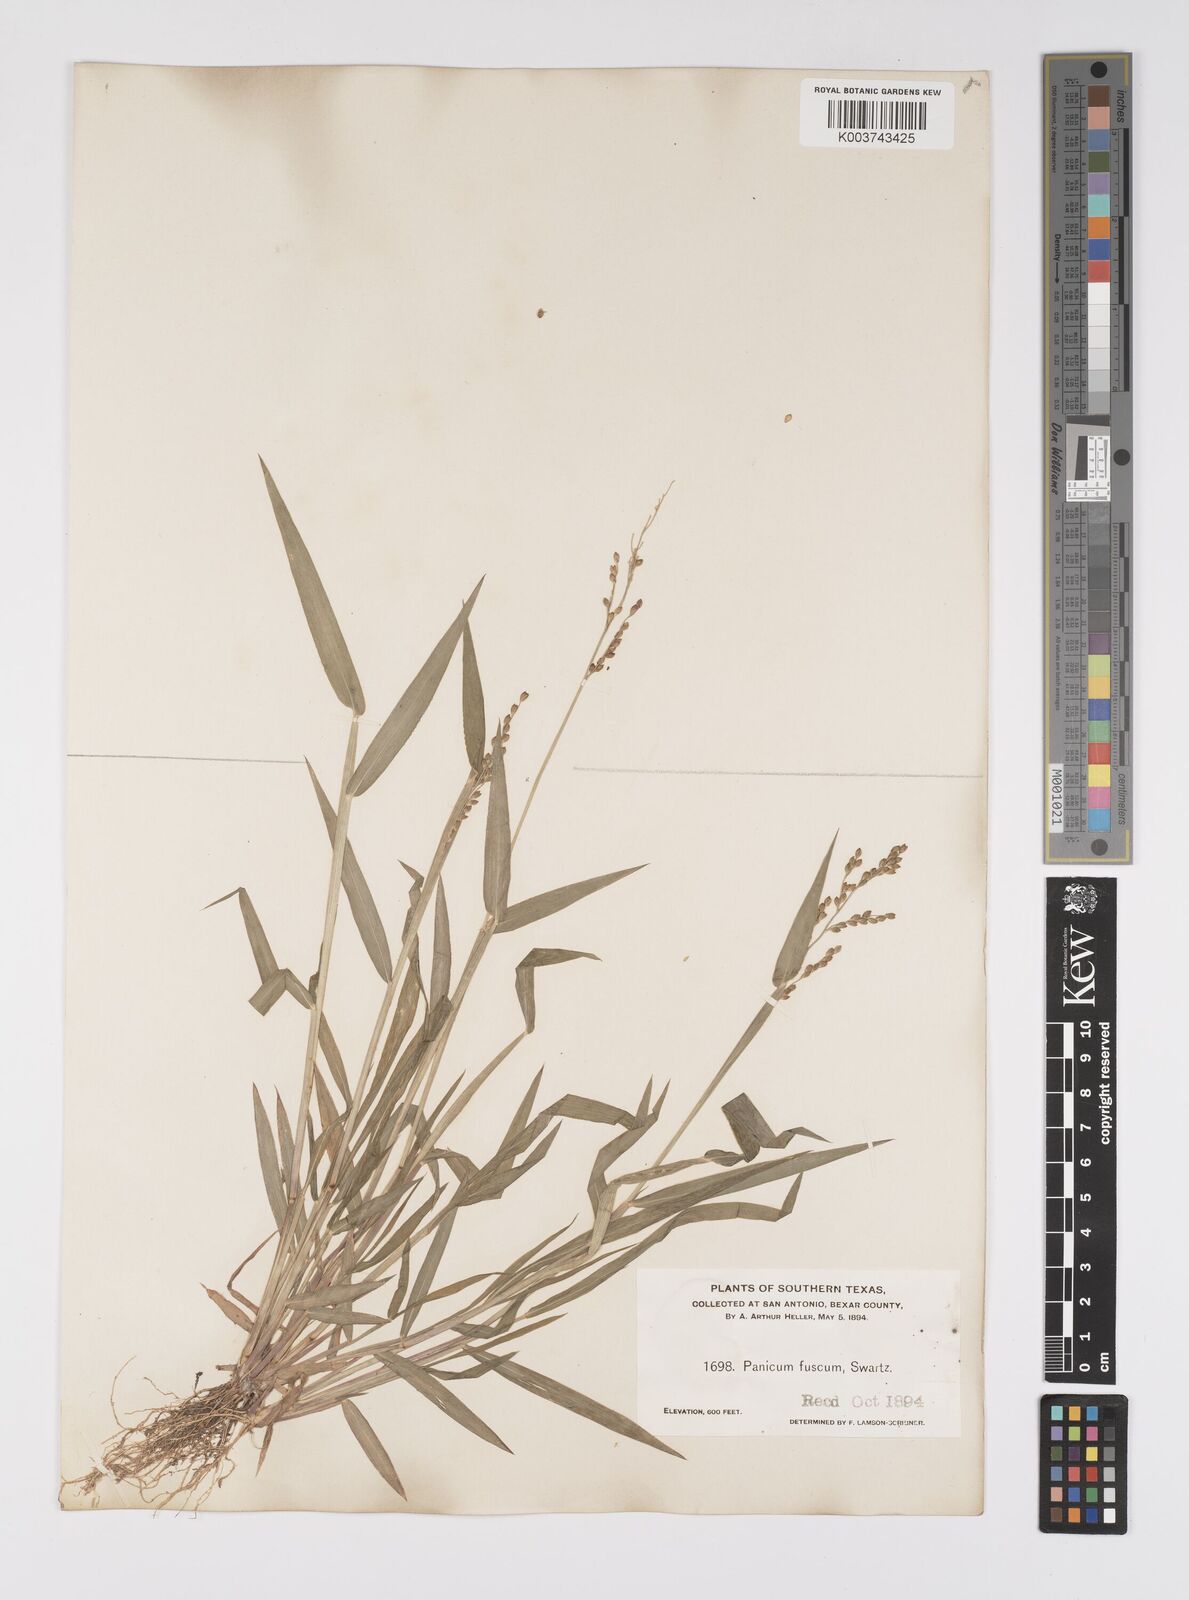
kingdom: Plantae
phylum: Tracheophyta
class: Liliopsida
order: Poales
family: Poaceae
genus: Urochloa
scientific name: Urochloa fusca
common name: Browntop signal grass
